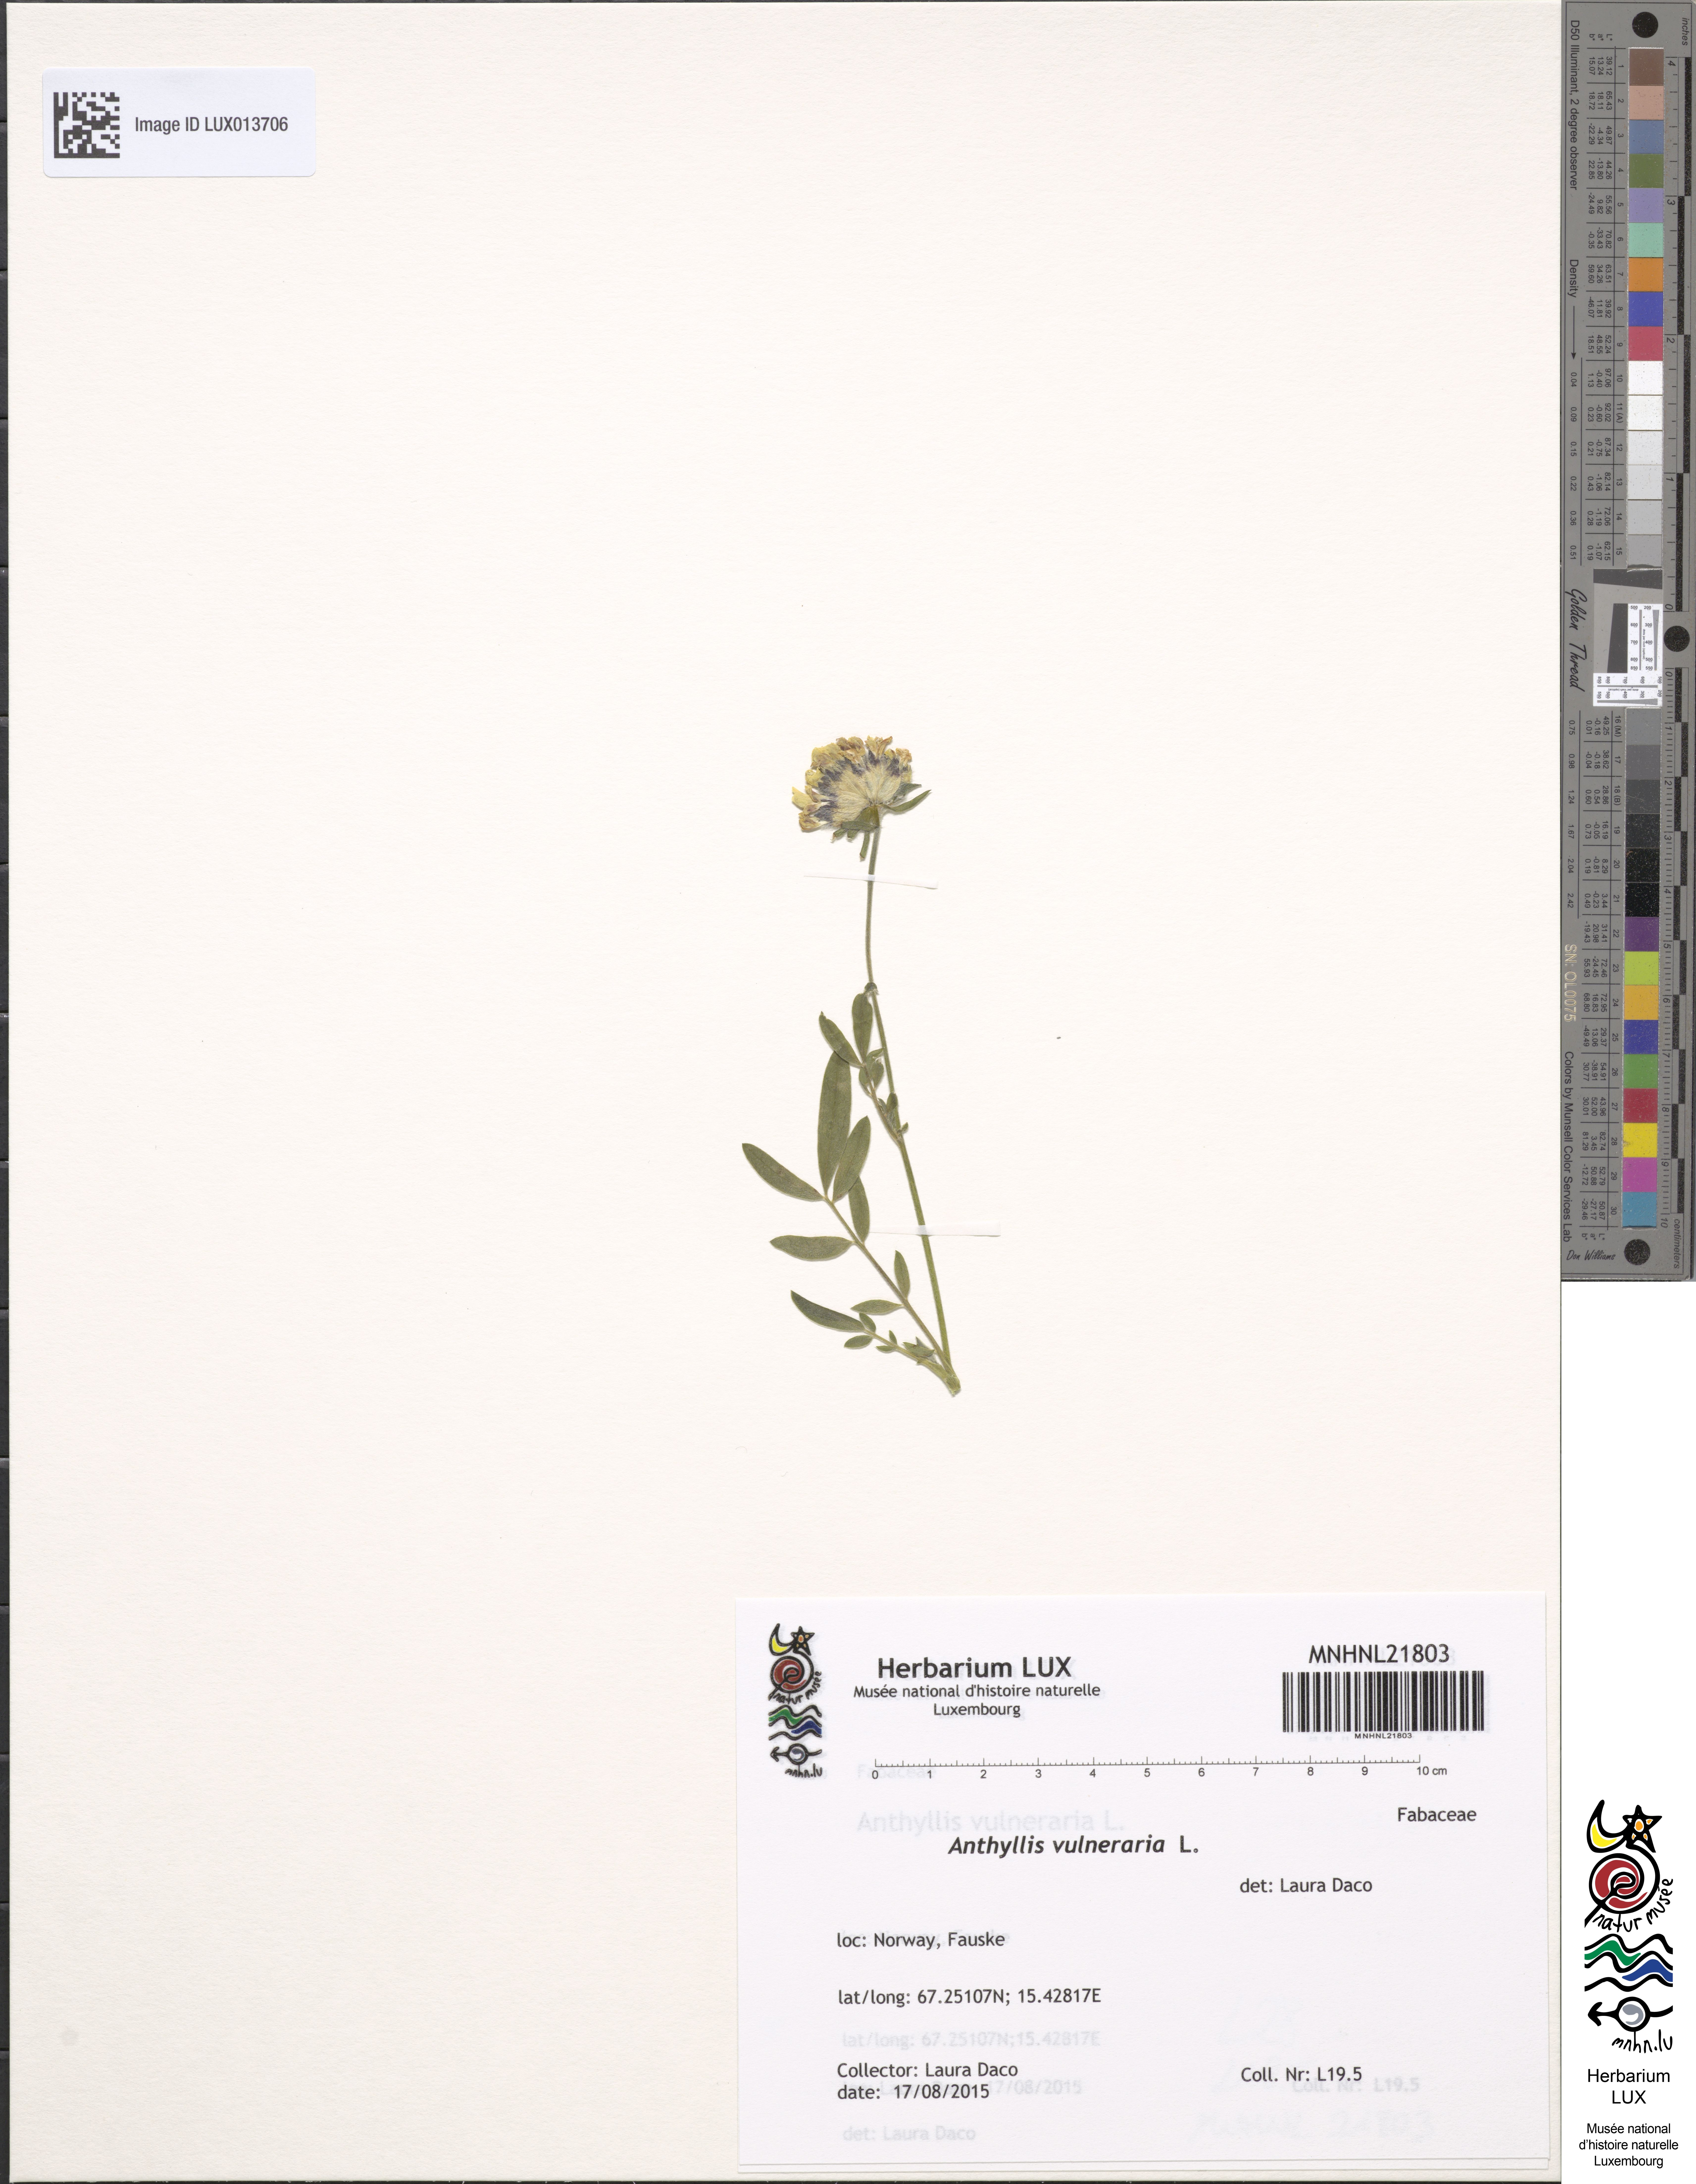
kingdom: Plantae
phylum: Tracheophyta
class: Magnoliopsida
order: Fabales
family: Fabaceae
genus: Anthyllis
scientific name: Anthyllis vulneraria
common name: Kidney vetch
